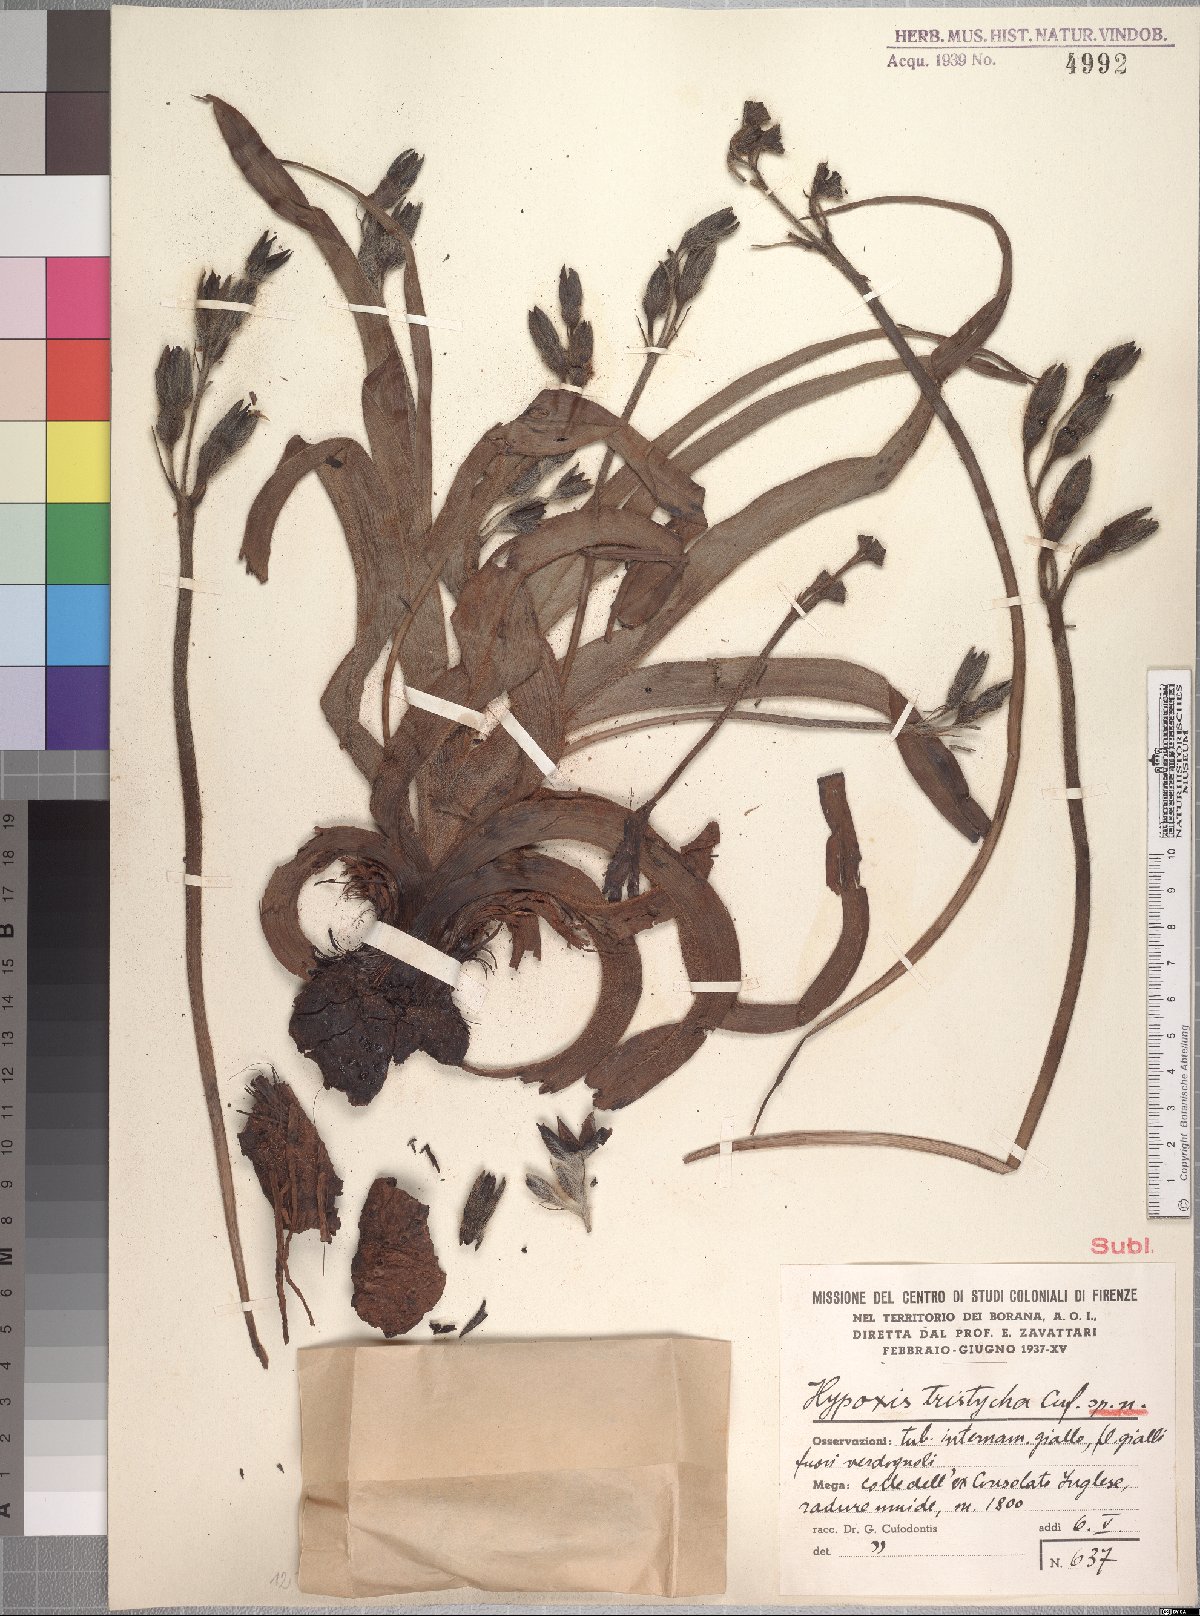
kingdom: Plantae
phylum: Tracheophyta
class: Liliopsida
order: Asparagales
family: Hypoxidaceae
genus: Hypoxis
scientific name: Hypoxis abyssinica
